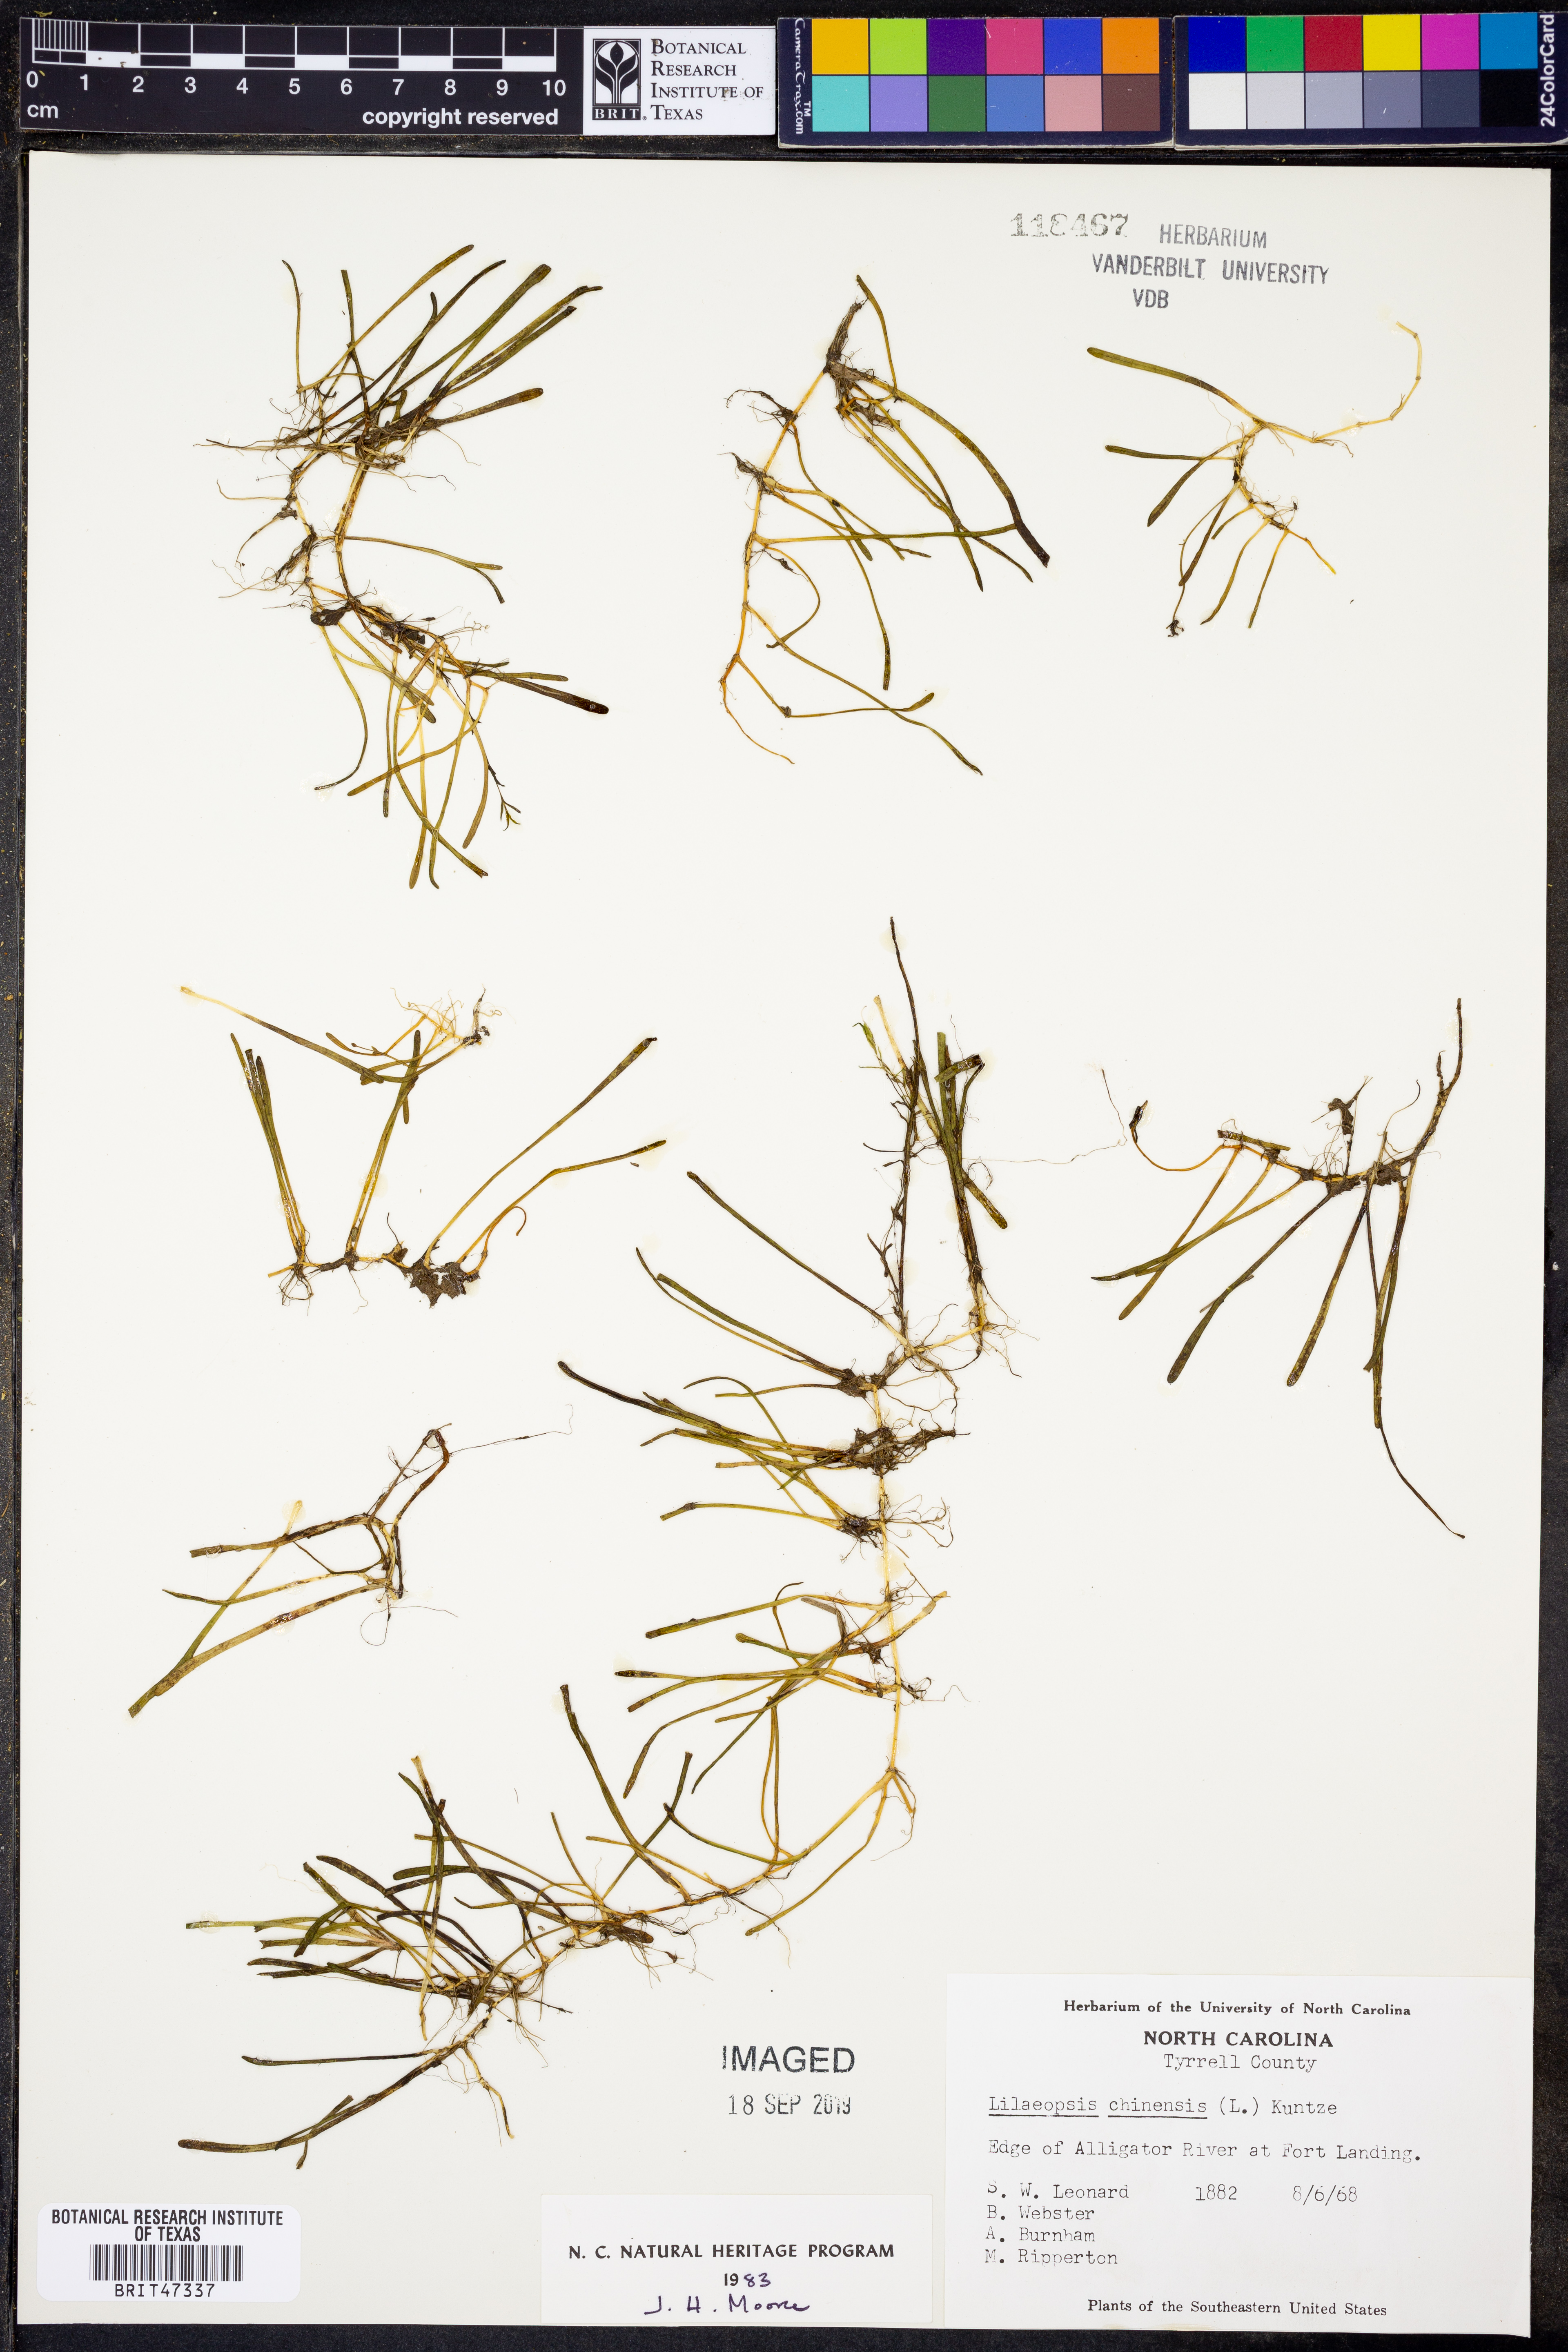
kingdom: Plantae
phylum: Tracheophyta
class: Magnoliopsida
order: Apiales
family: Apiaceae
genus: Lilaeopsis
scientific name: Lilaeopsis chinensis
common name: Eastern grasswort
